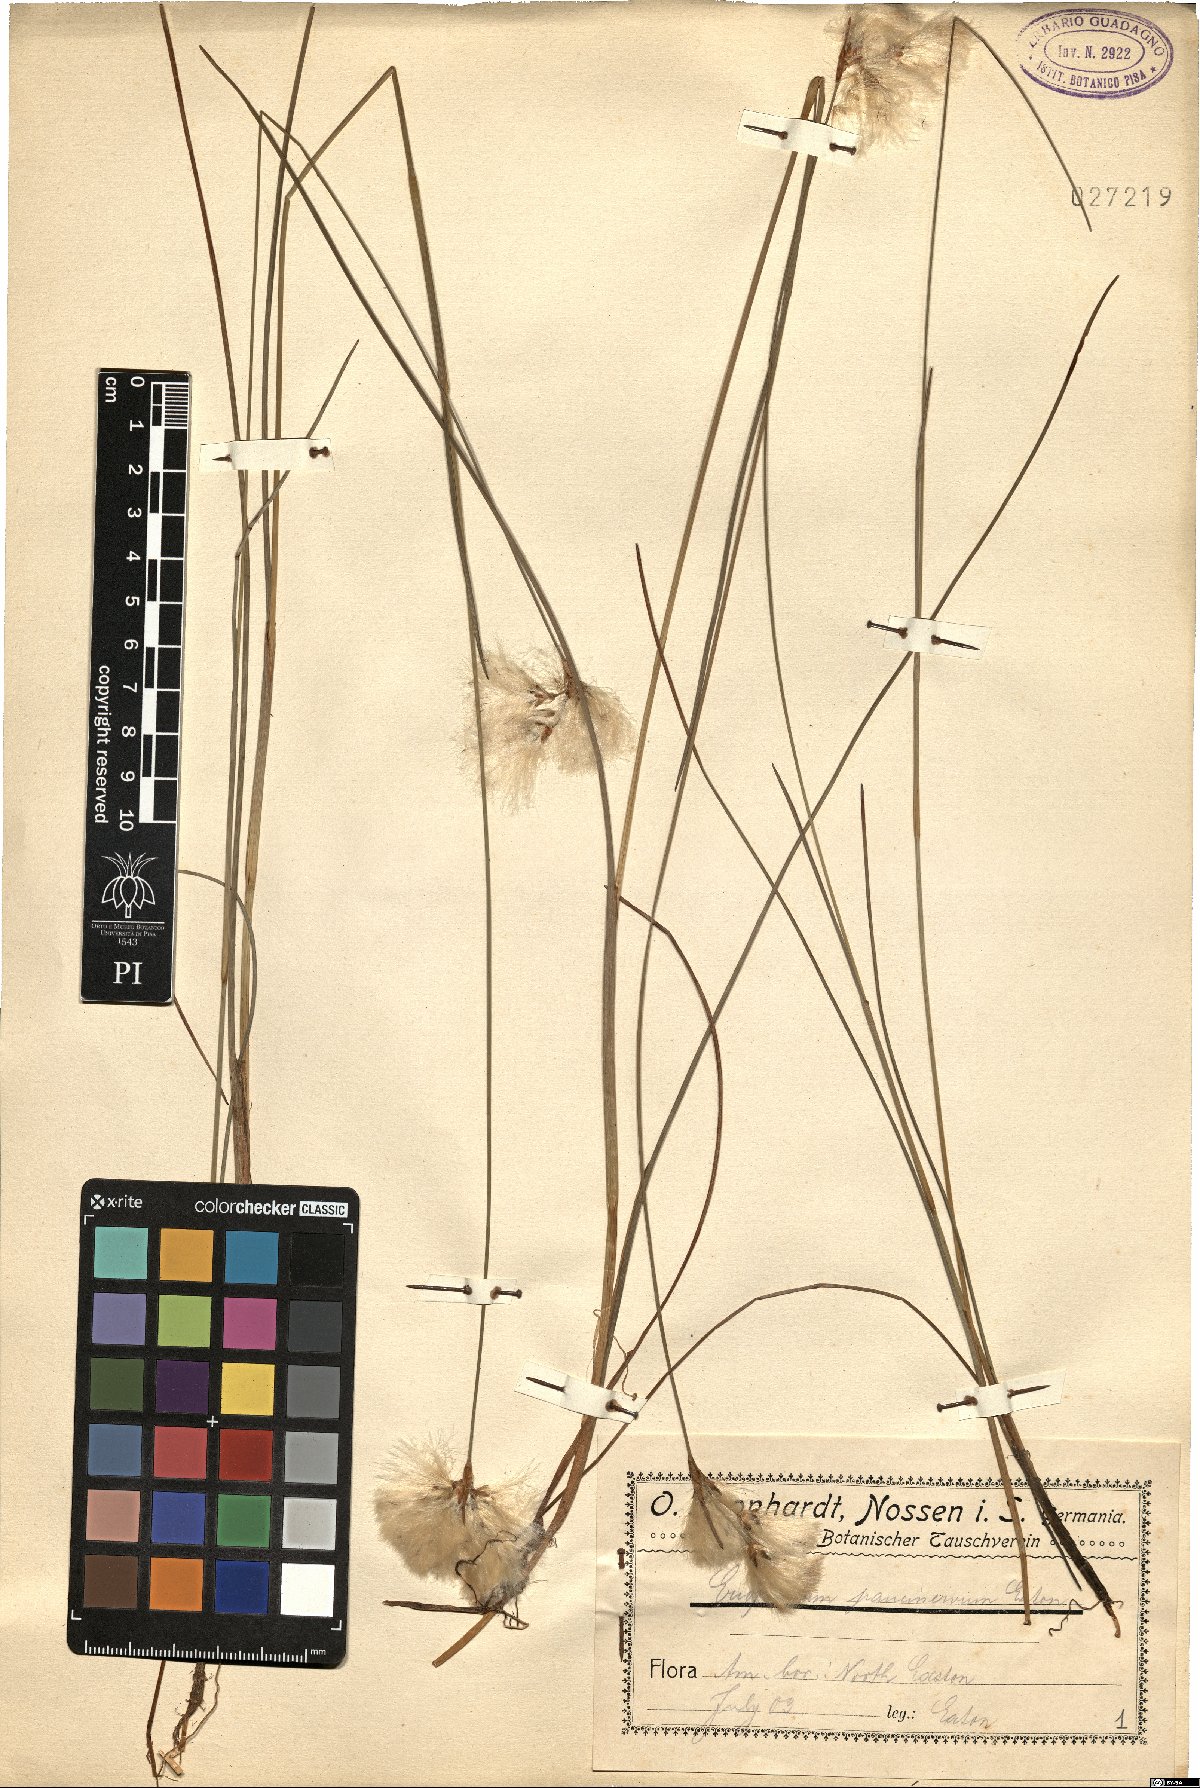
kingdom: Plantae
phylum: Tracheophyta
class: Liliopsida
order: Poales
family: Cyperaceae
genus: Eriophorum
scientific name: Eriophorum gracile
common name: Slender cottongrass
